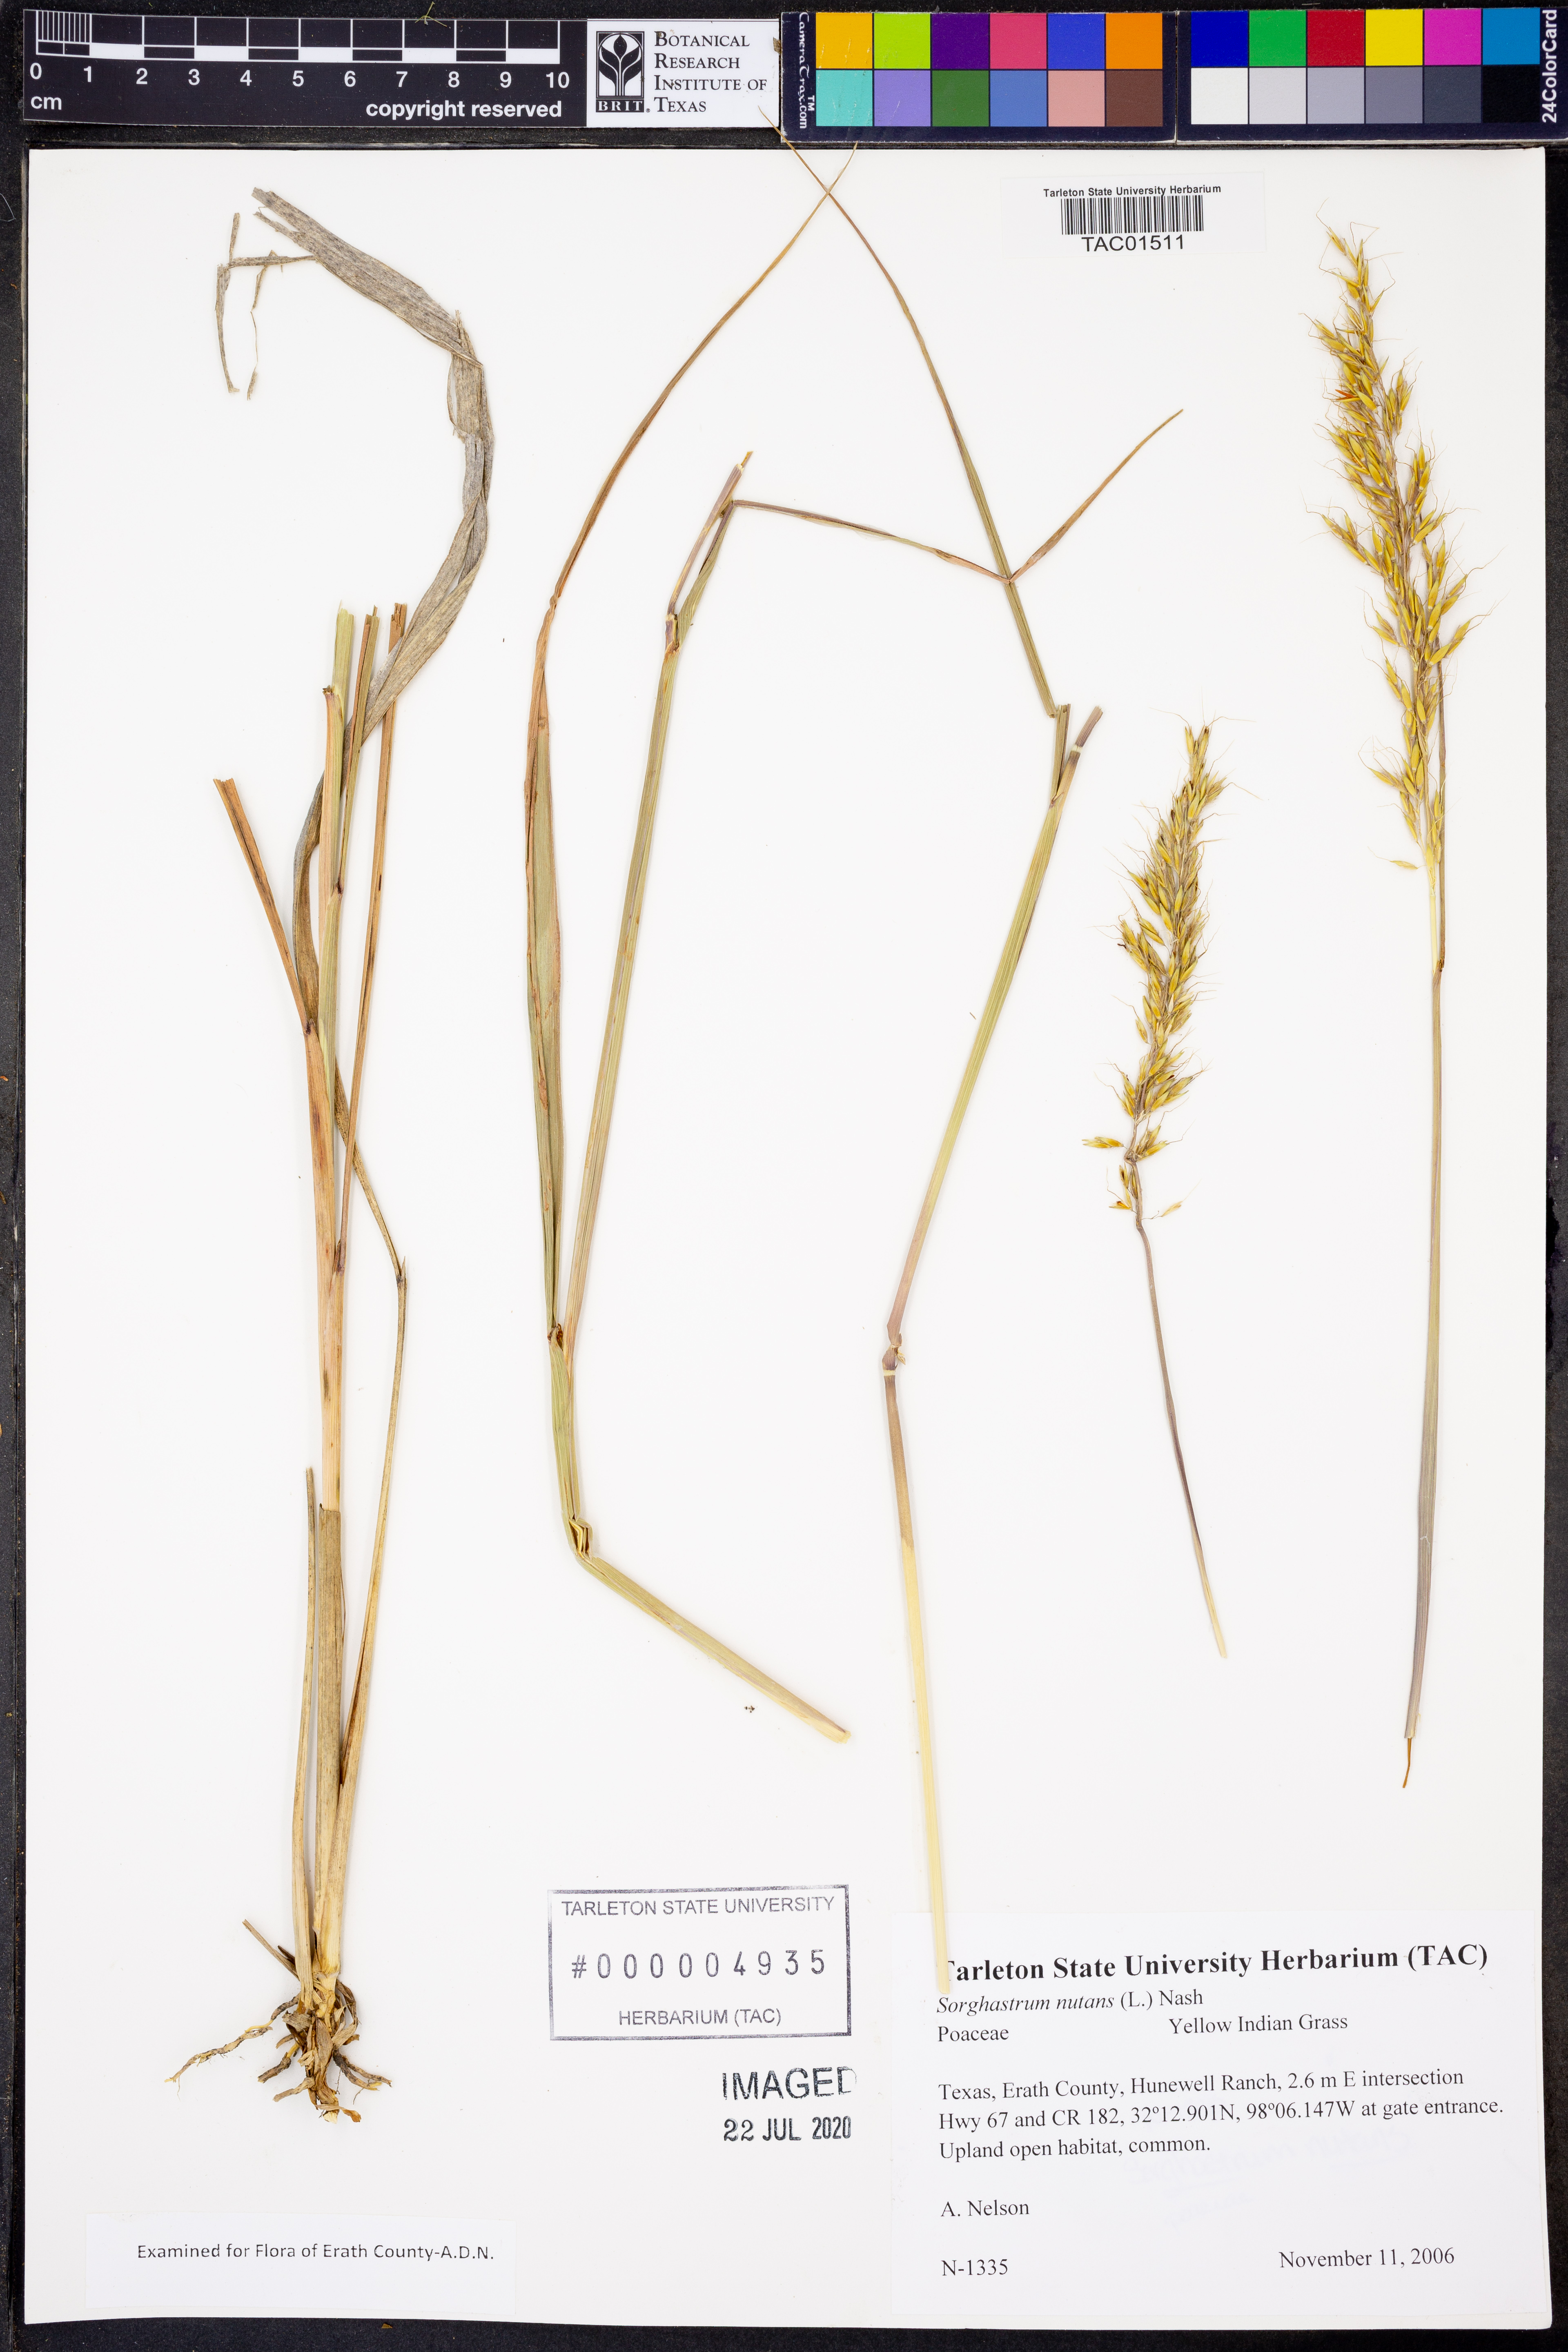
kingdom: Plantae
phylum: Tracheophyta
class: Liliopsida
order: Poales
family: Poaceae
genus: Sorghastrum
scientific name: Sorghastrum nutans
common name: Indian grass
